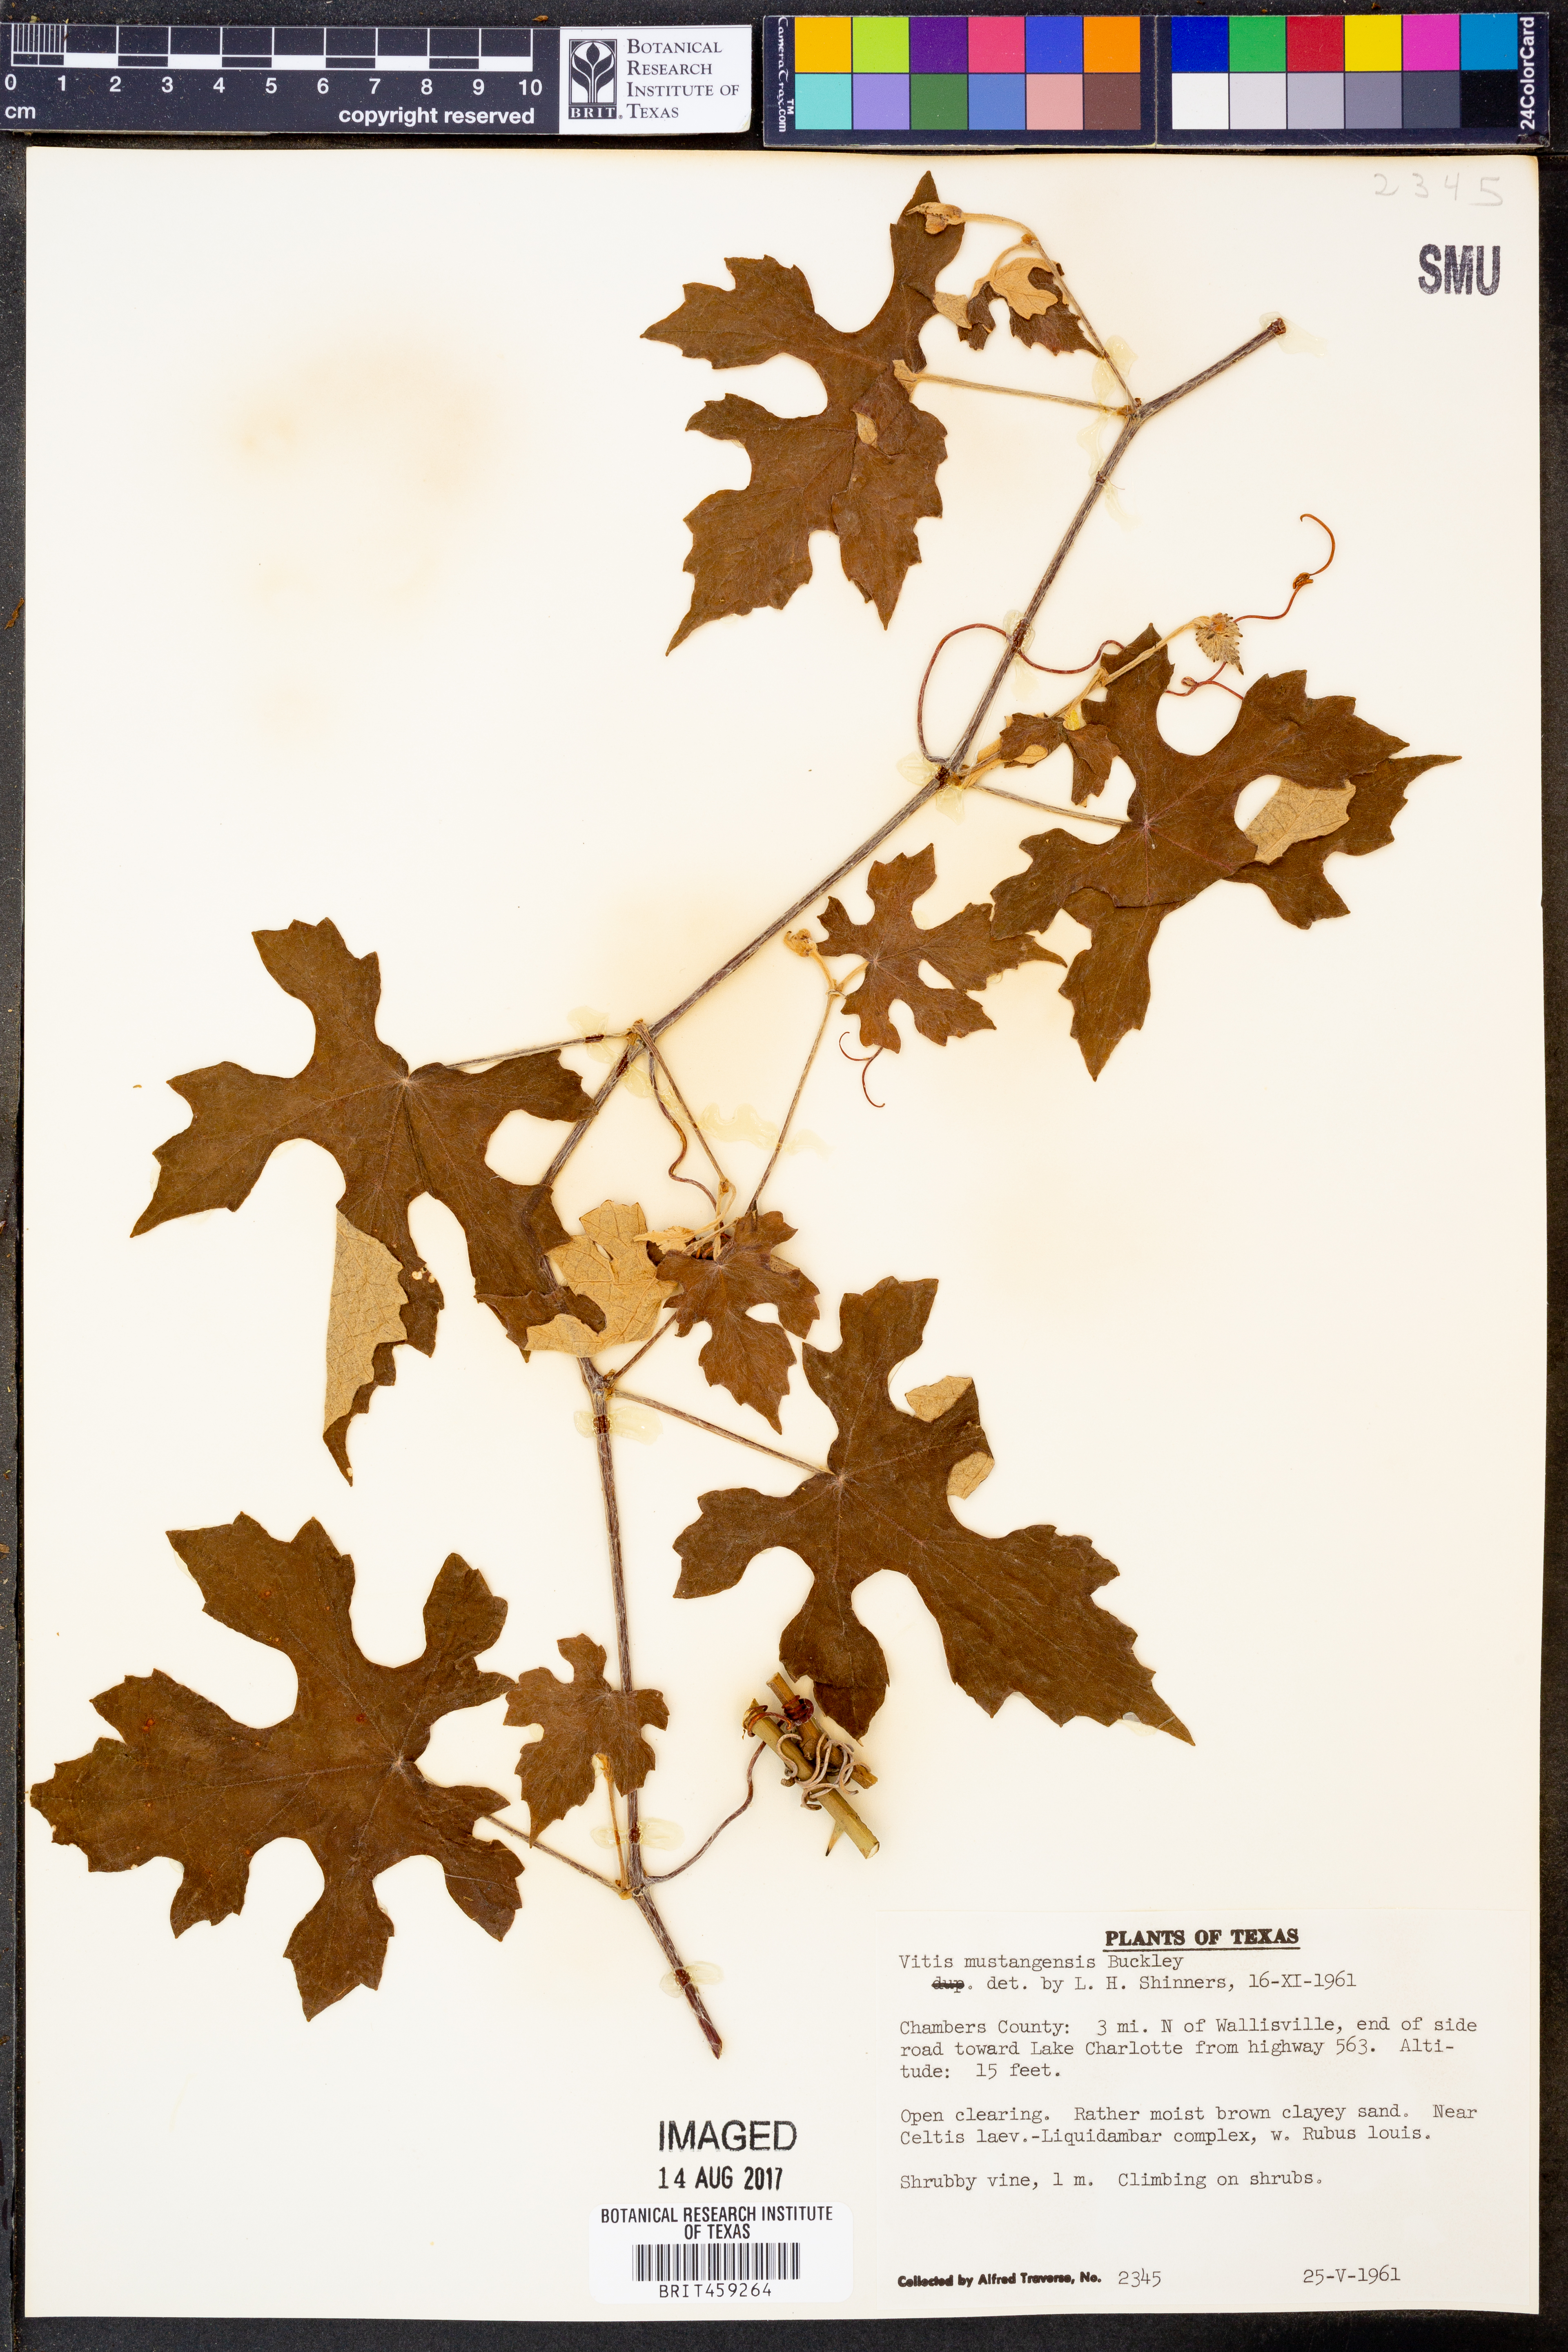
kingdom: Plantae
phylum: Tracheophyta
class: Magnoliopsida
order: Vitales
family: Vitaceae
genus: Vitis
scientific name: Vitis mustangensis
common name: Mustang grape
